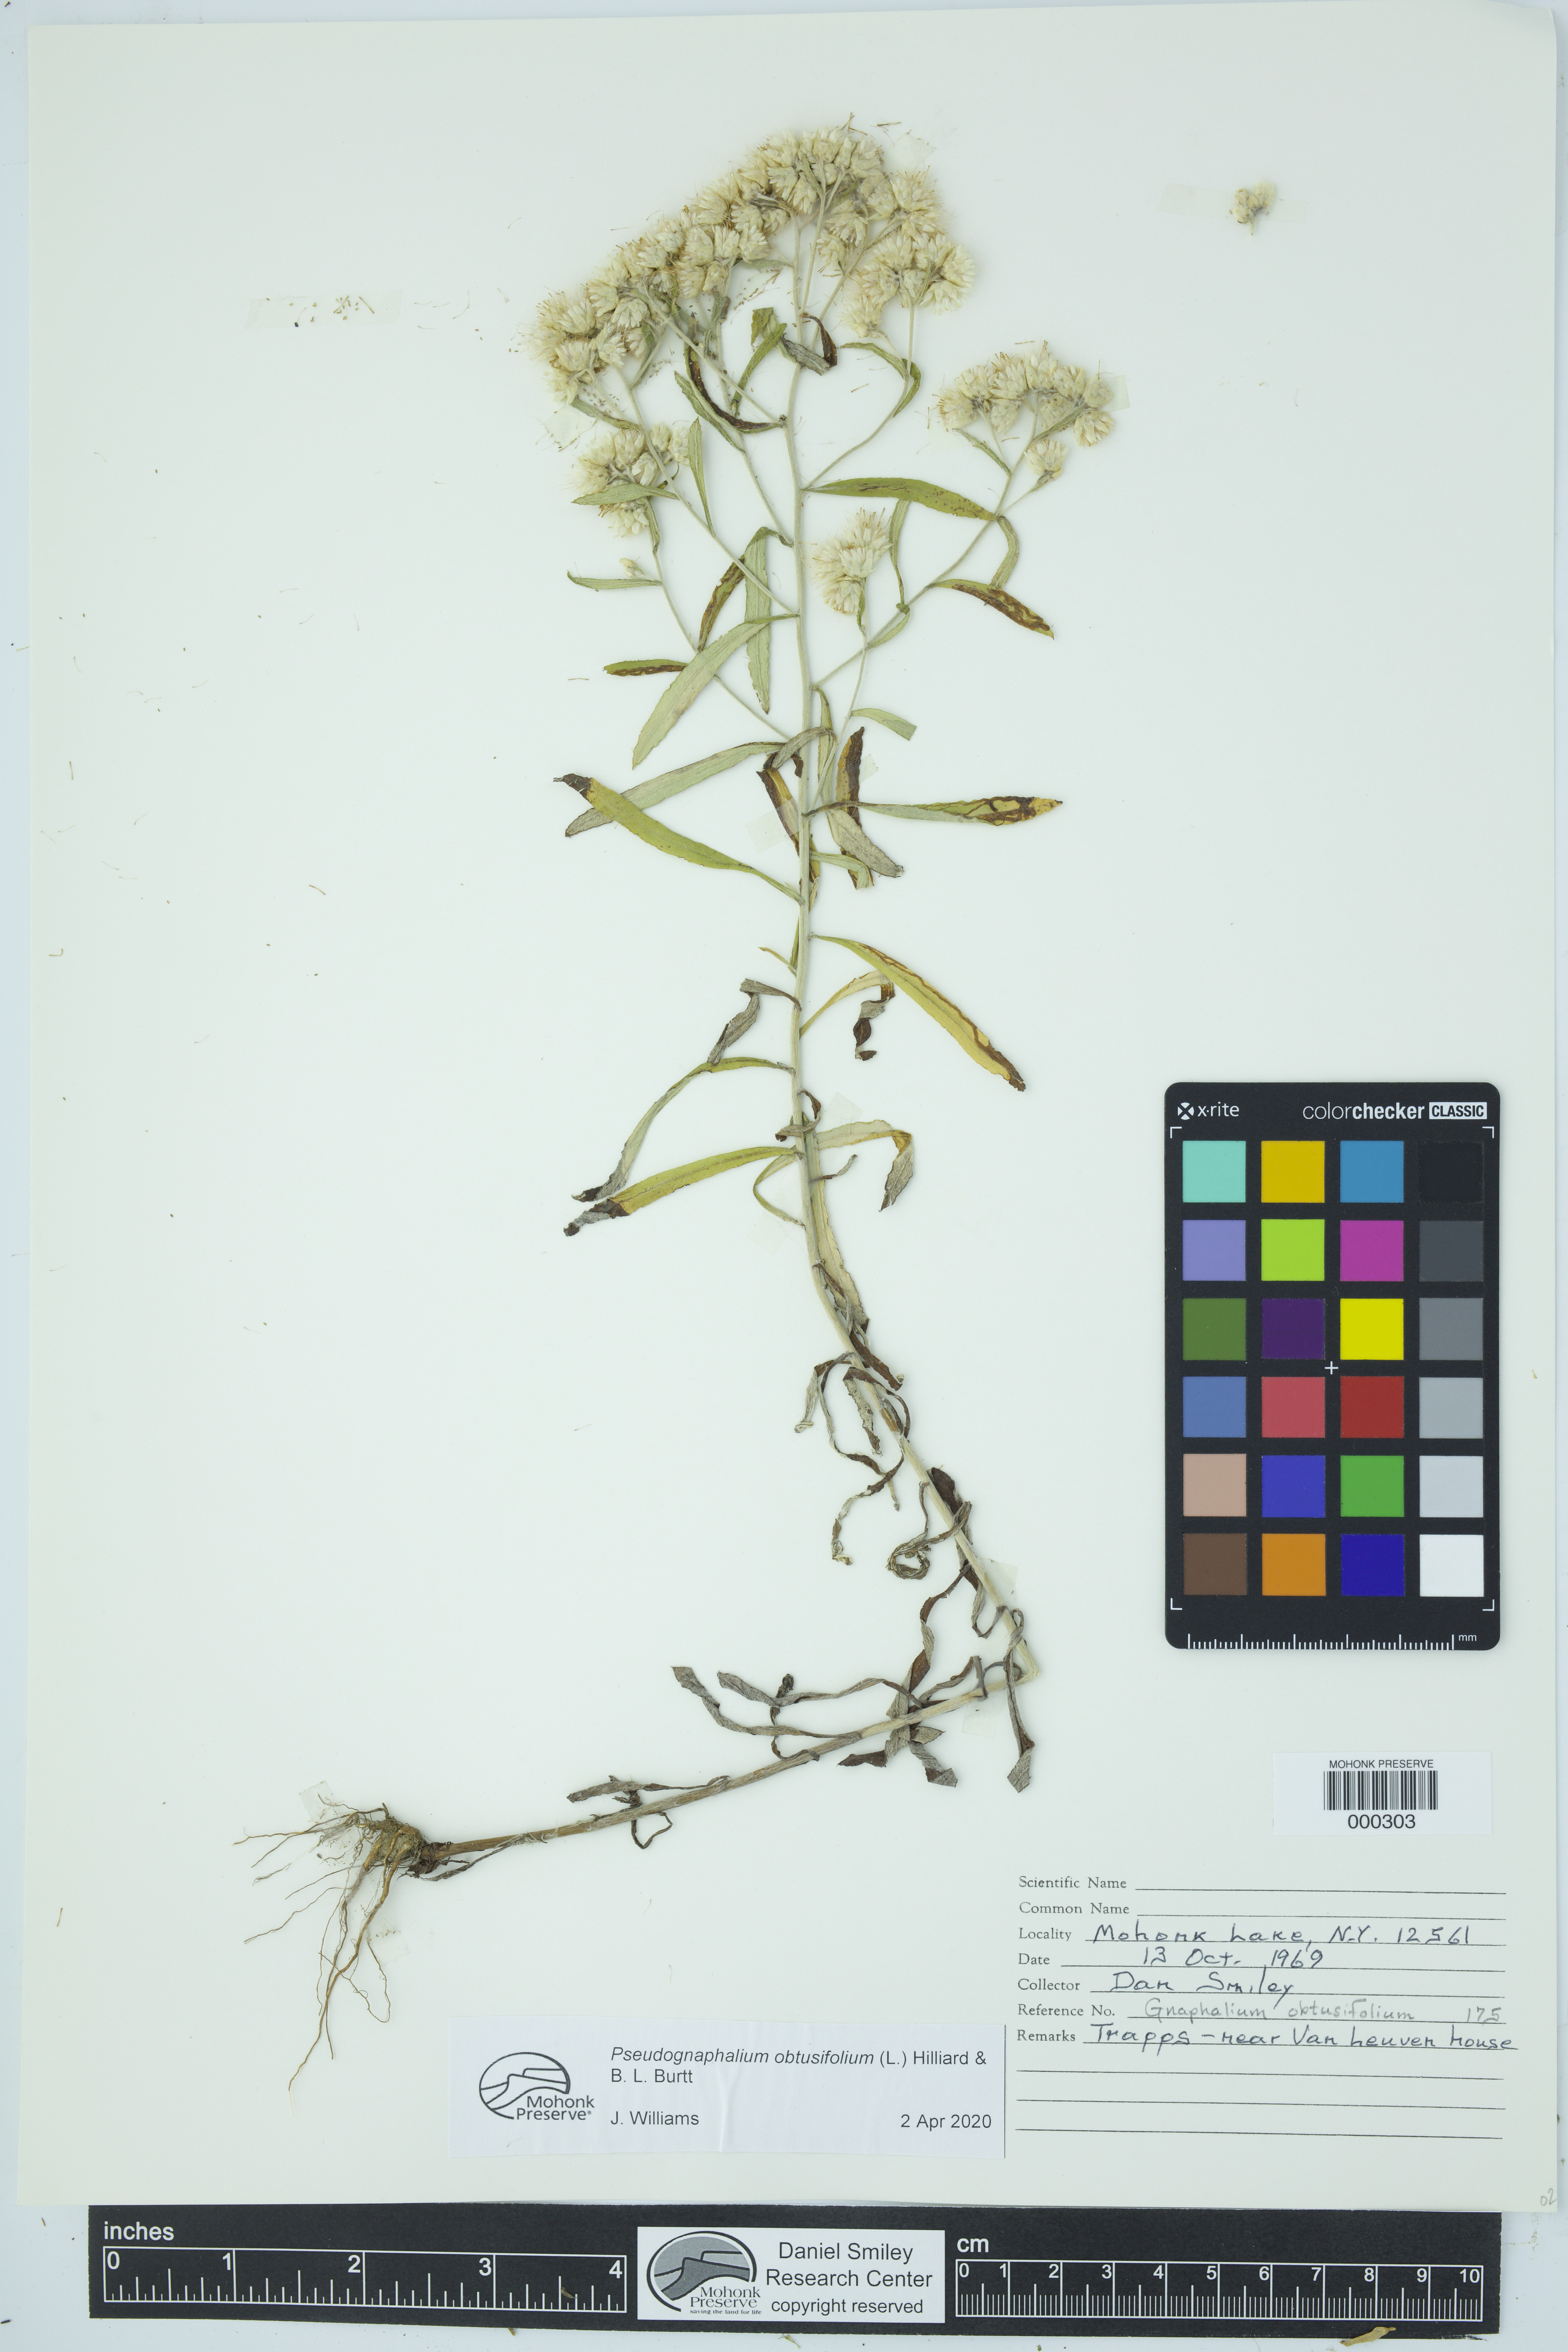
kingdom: Plantae
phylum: Tracheophyta
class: Magnoliopsida
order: Asterales
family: Asteraceae
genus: Pseudognaphalium
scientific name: Pseudognaphalium obtusifolium
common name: Eastern rabbit-tobacco
